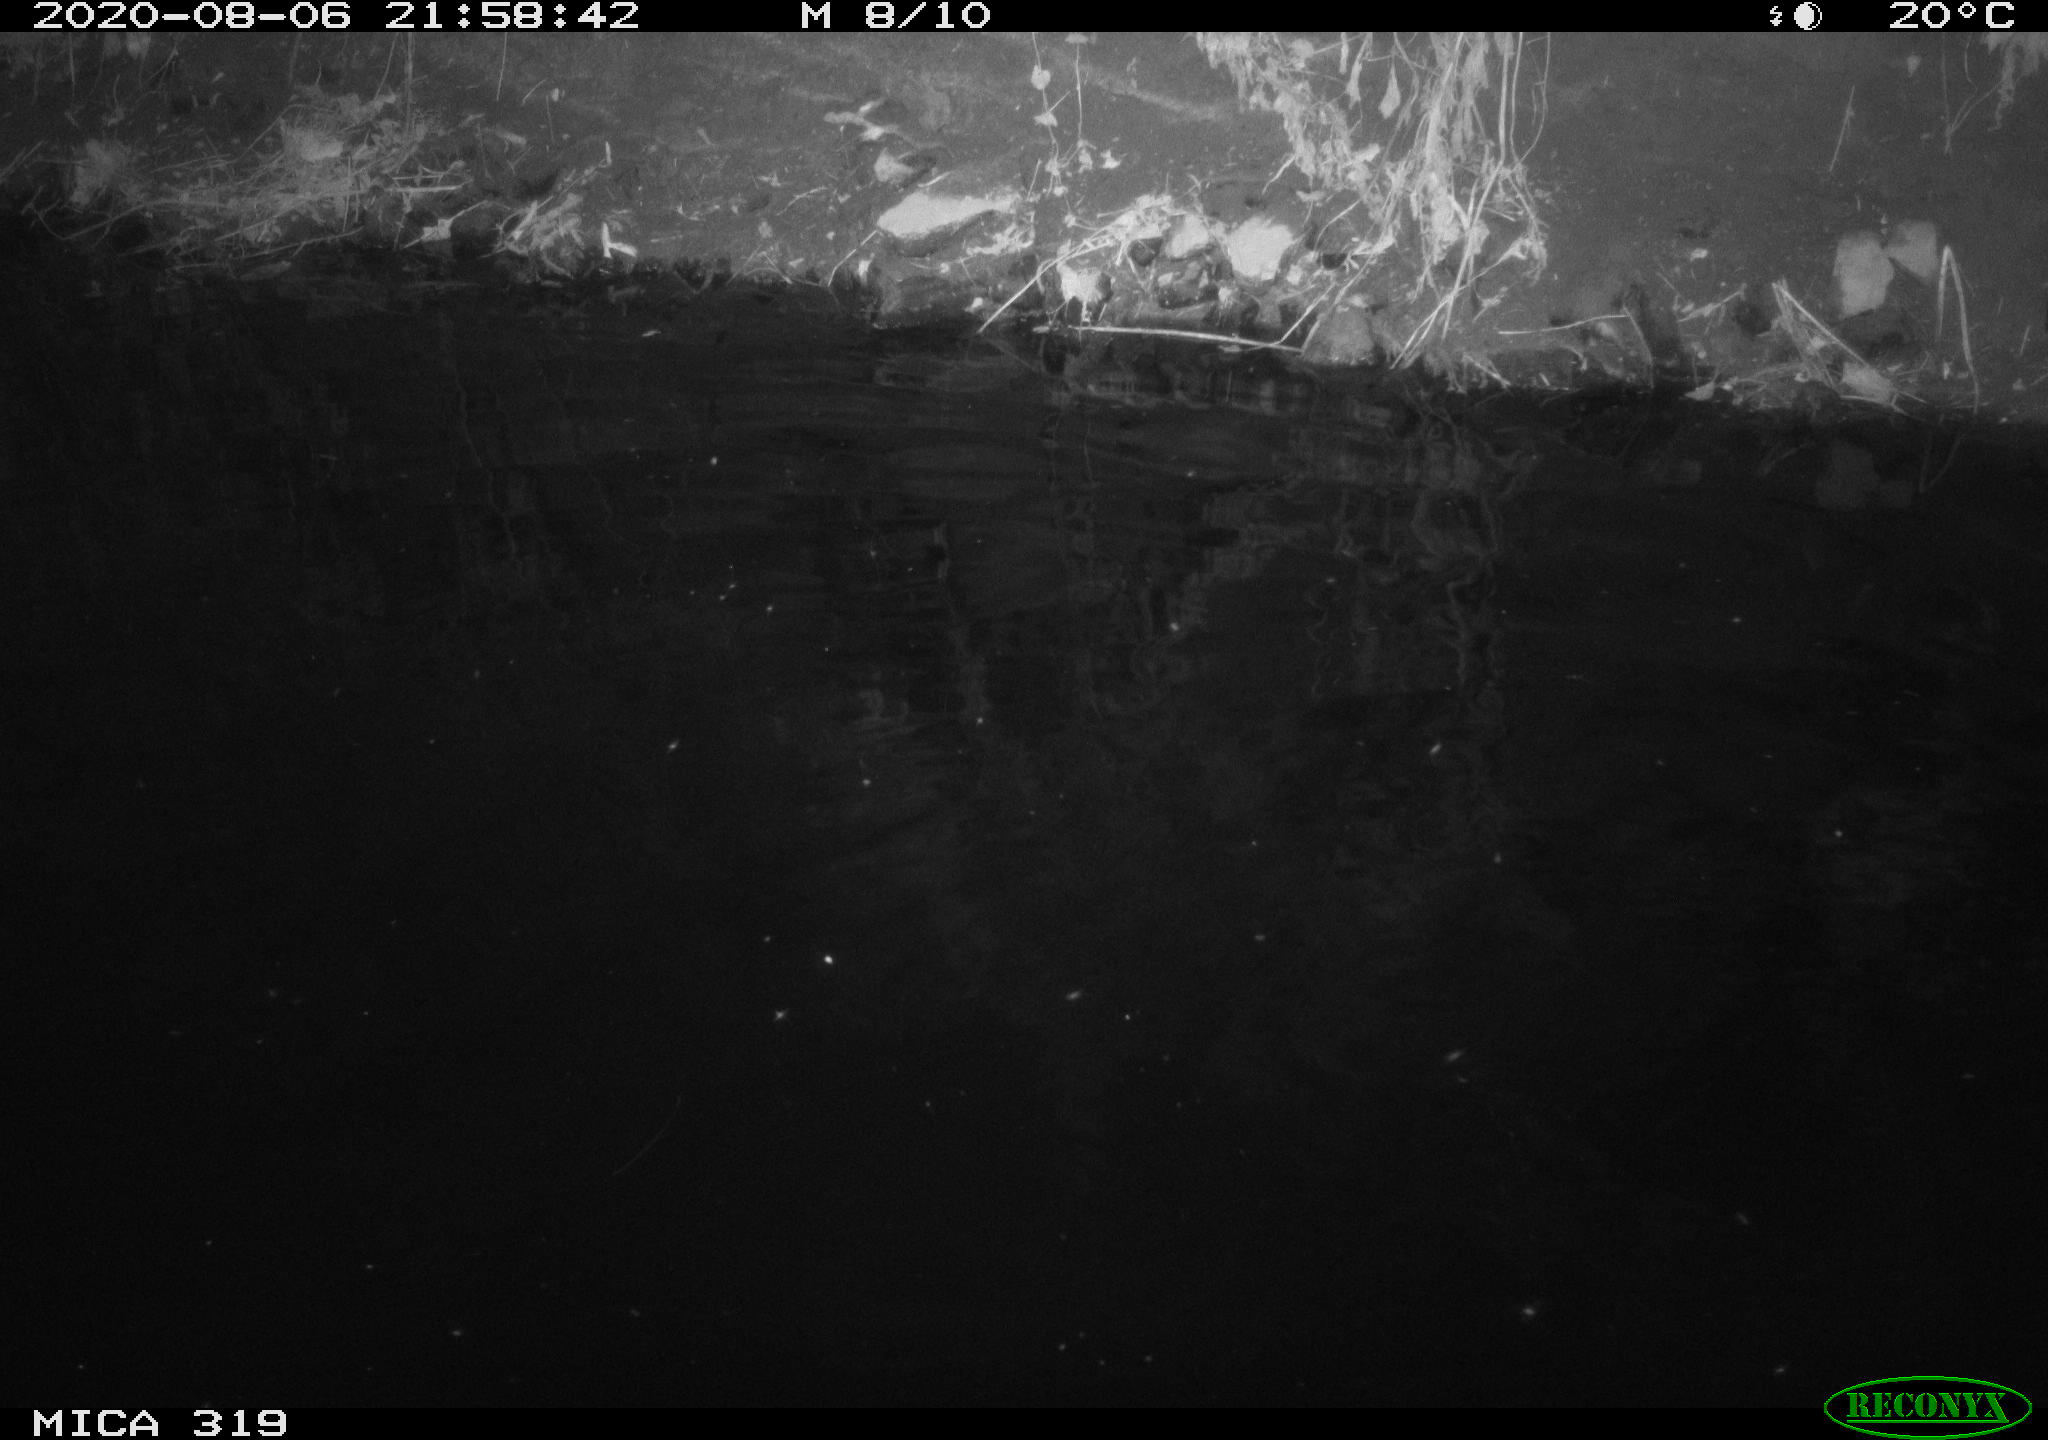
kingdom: Animalia
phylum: Chordata
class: Aves
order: Anseriformes
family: Anatidae
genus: Anas
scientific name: Anas platyrhynchos
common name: Mallard
